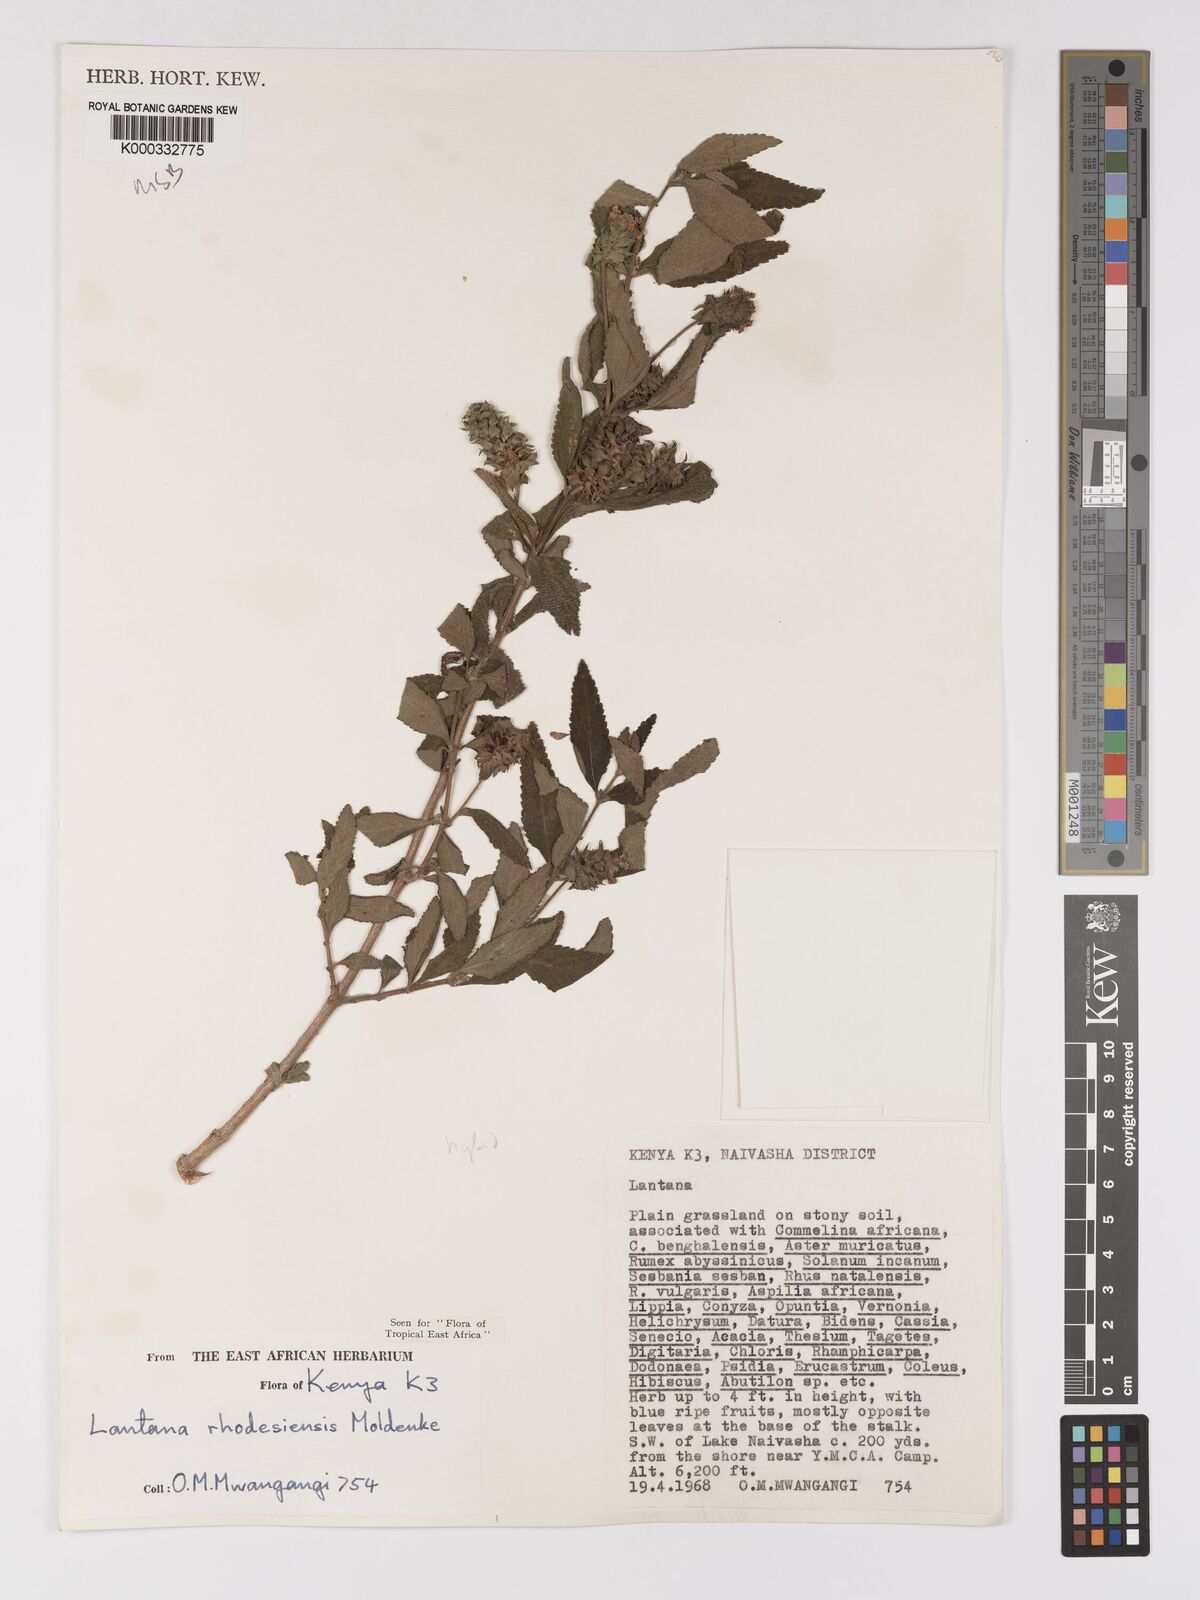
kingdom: Plantae
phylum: Tracheophyta
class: Magnoliopsida
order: Lamiales
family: Verbenaceae
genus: Lantana
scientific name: Lantana ukambensis
